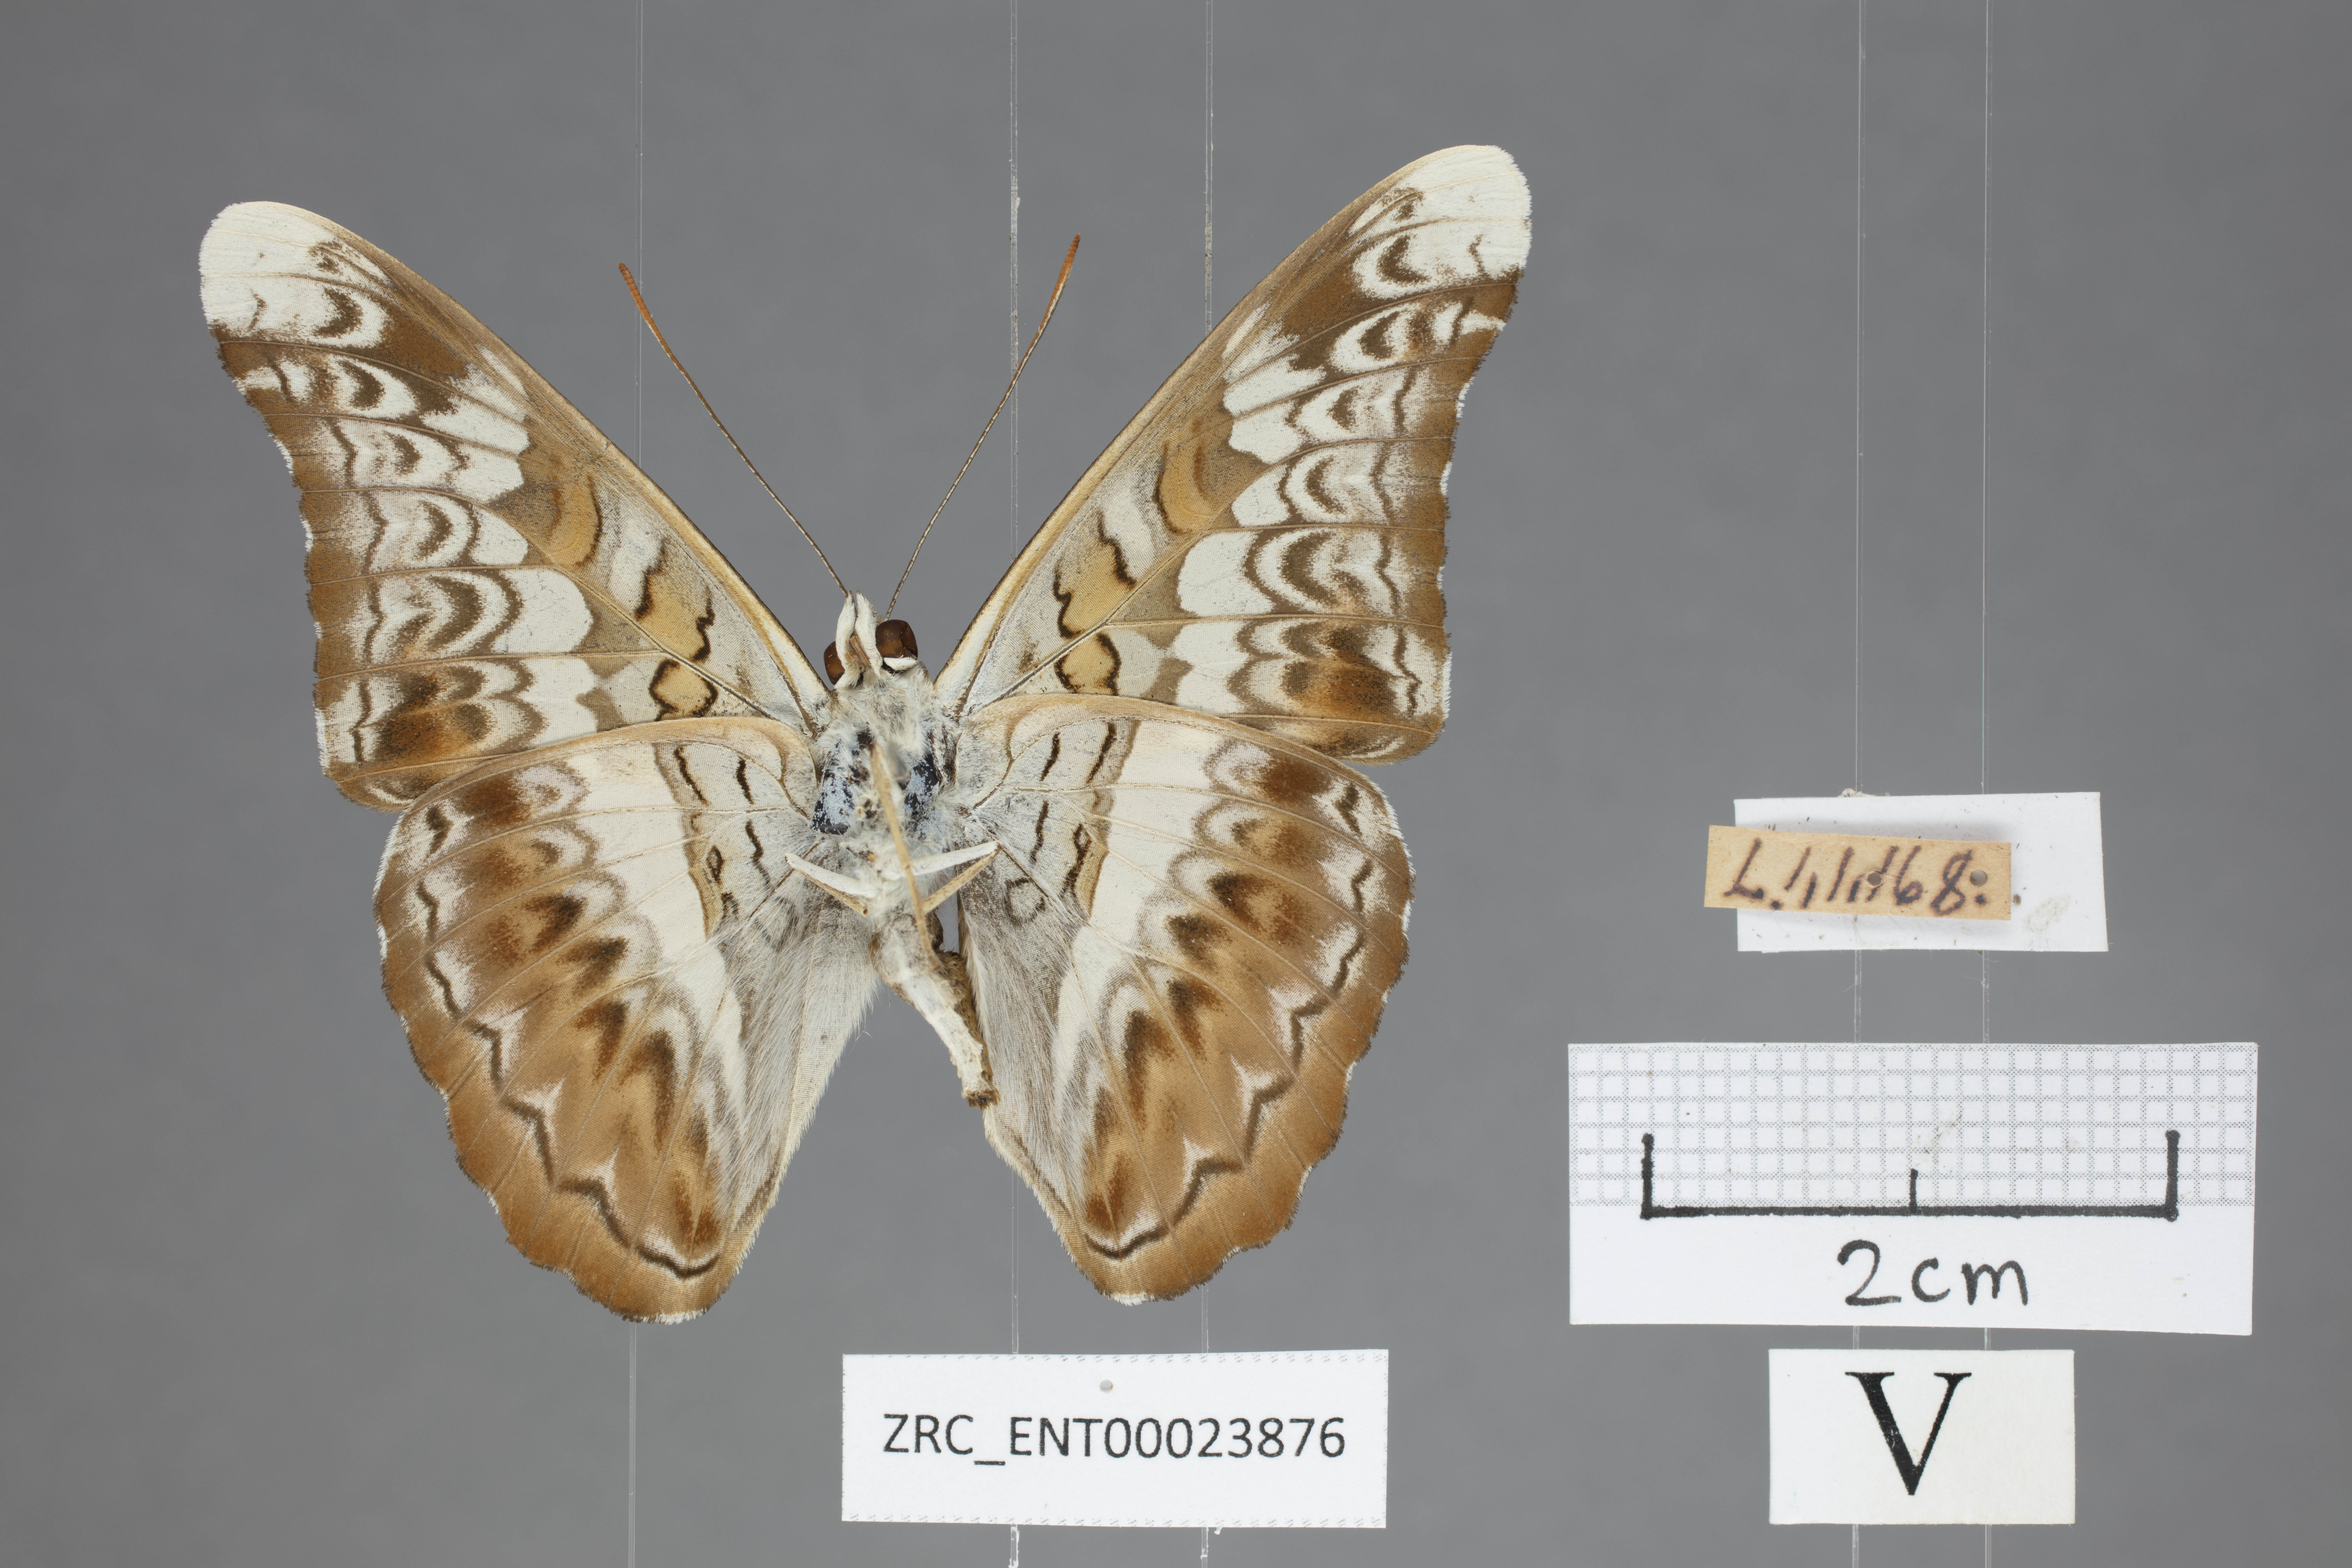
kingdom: Animalia
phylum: Arthropoda
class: Insecta
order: Lepidoptera
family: Nymphalidae
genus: Lebadea
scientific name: Lebadea martha
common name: Knight
